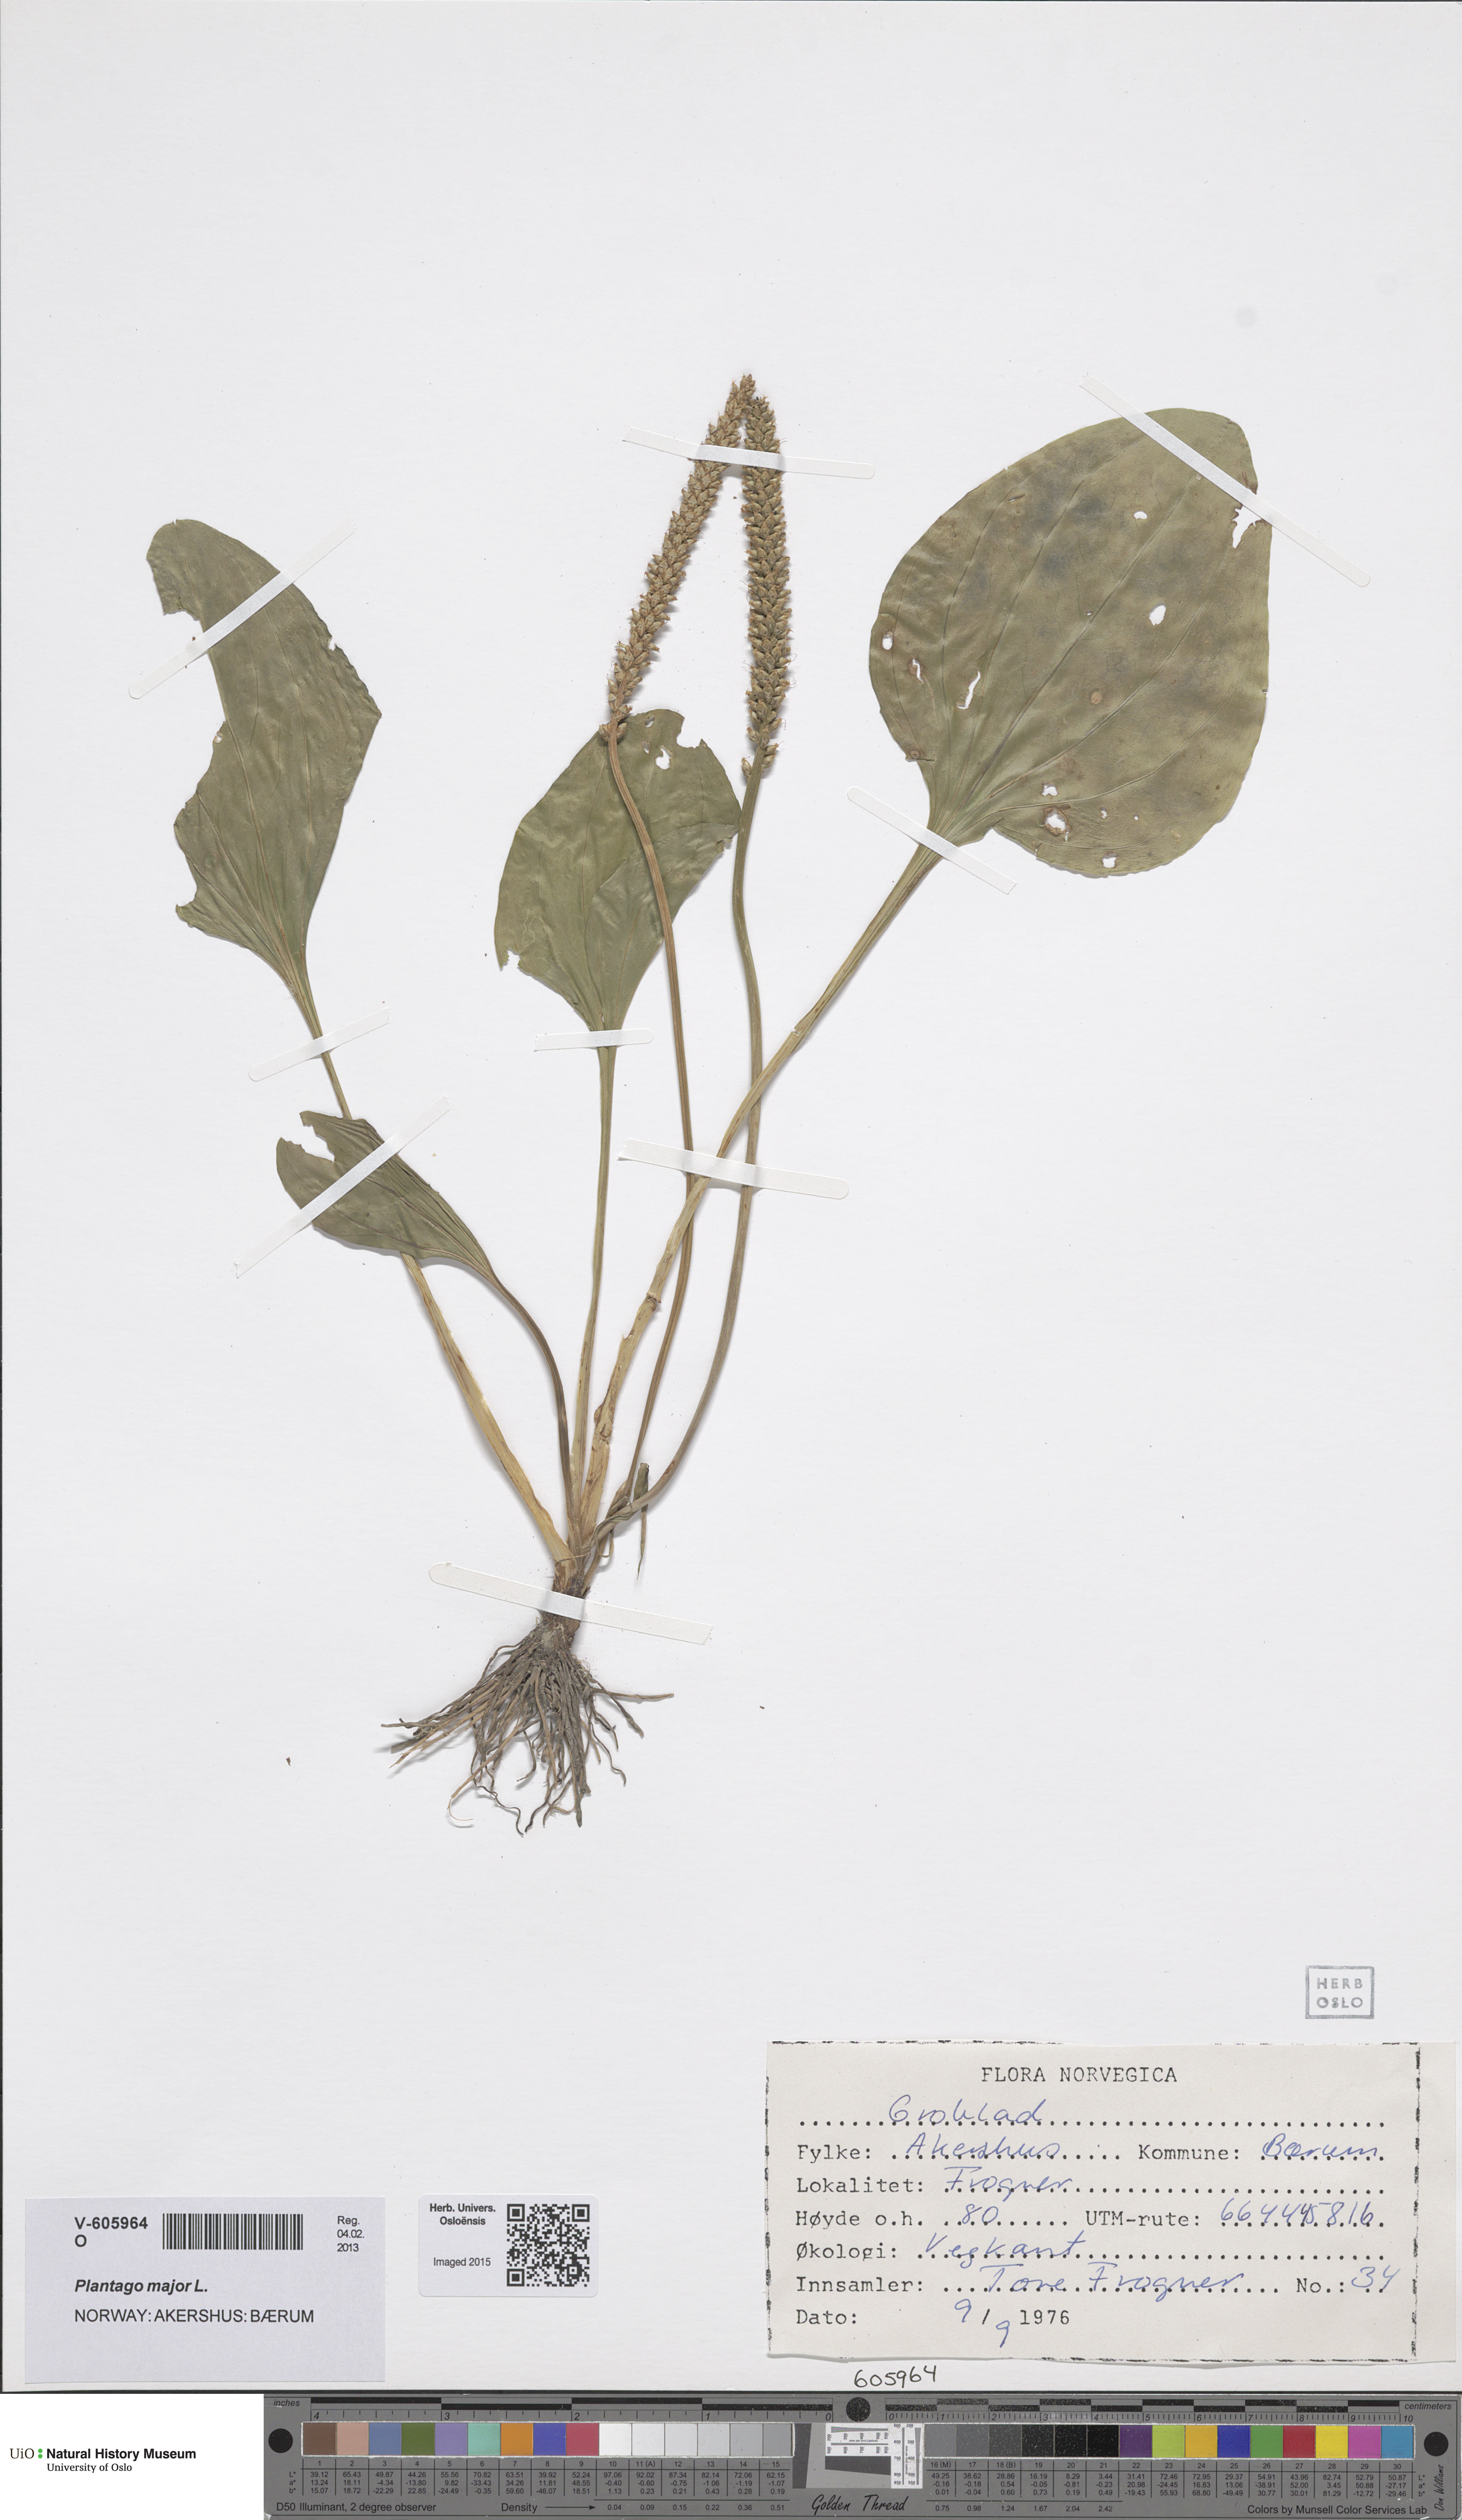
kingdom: Plantae
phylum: Tracheophyta
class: Magnoliopsida
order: Lamiales
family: Plantaginaceae
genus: Plantago
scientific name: Plantago major
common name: Common plantain
